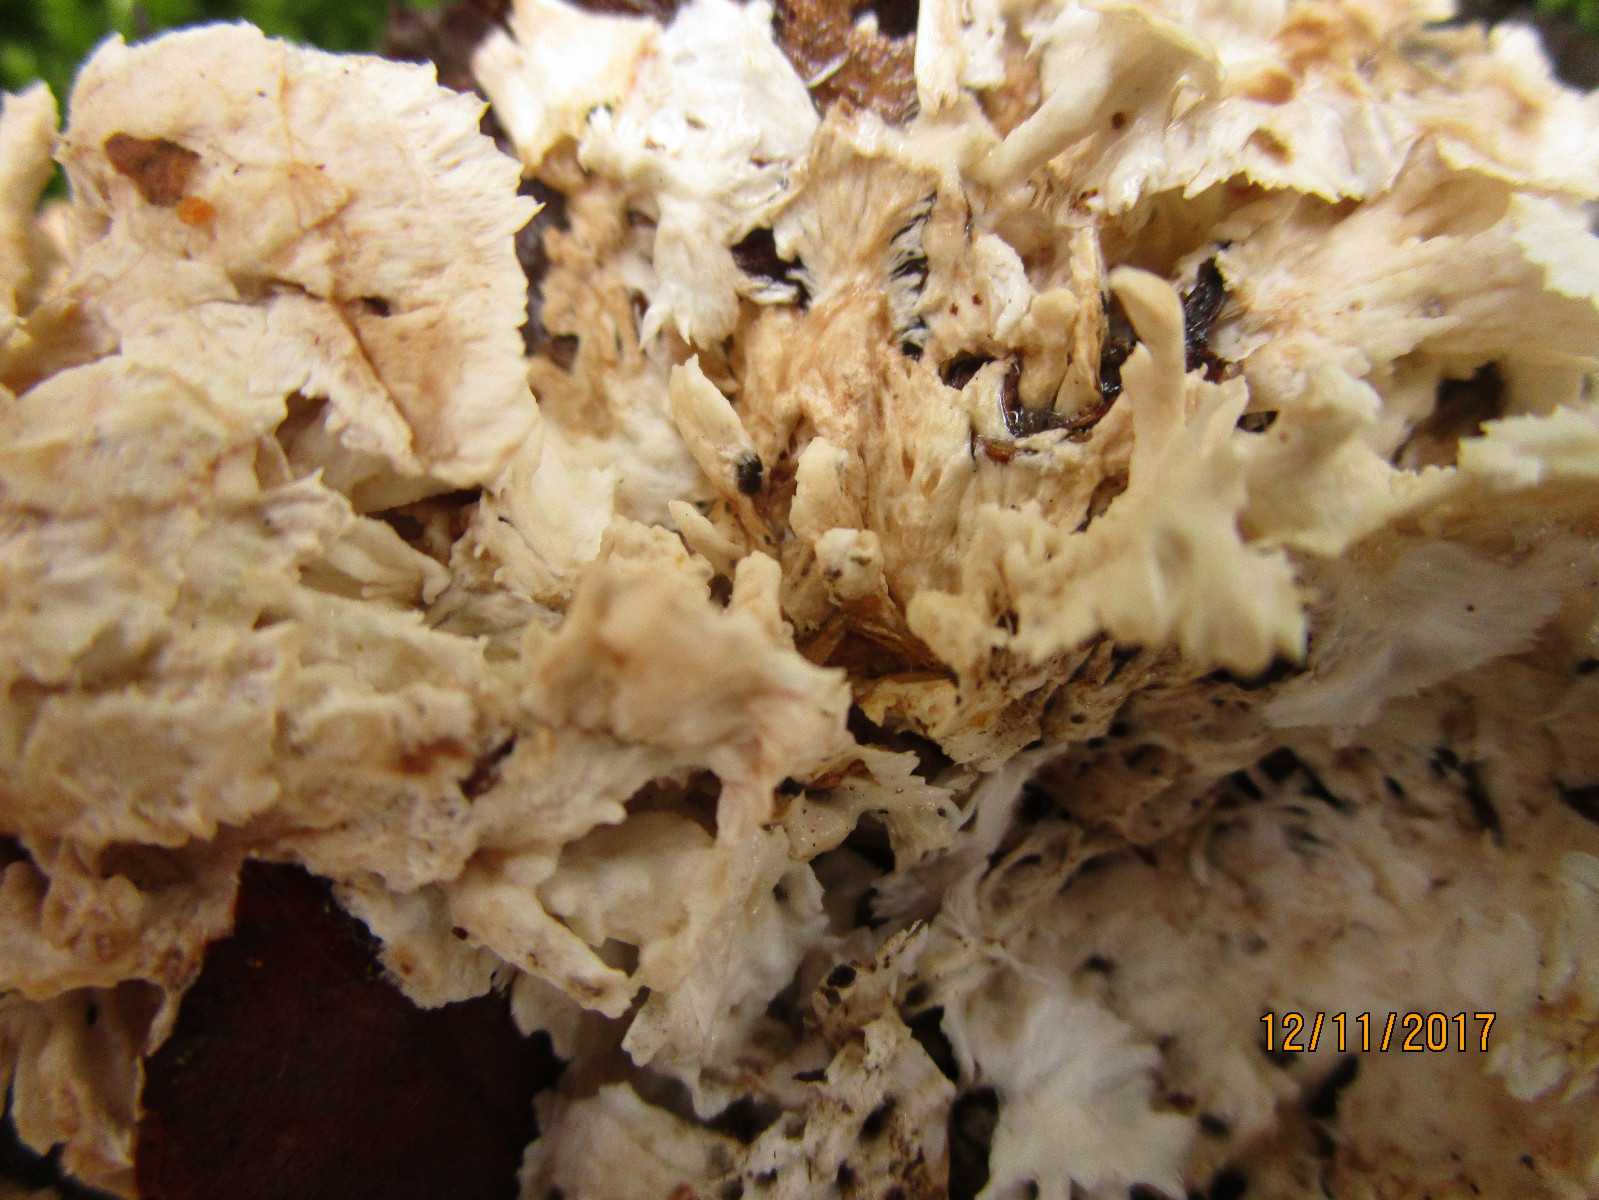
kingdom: Fungi
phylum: Basidiomycota
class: Agaricomycetes
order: Trechisporales
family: Sistotremataceae
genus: Trechispora
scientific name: Trechispora fastidiosa
